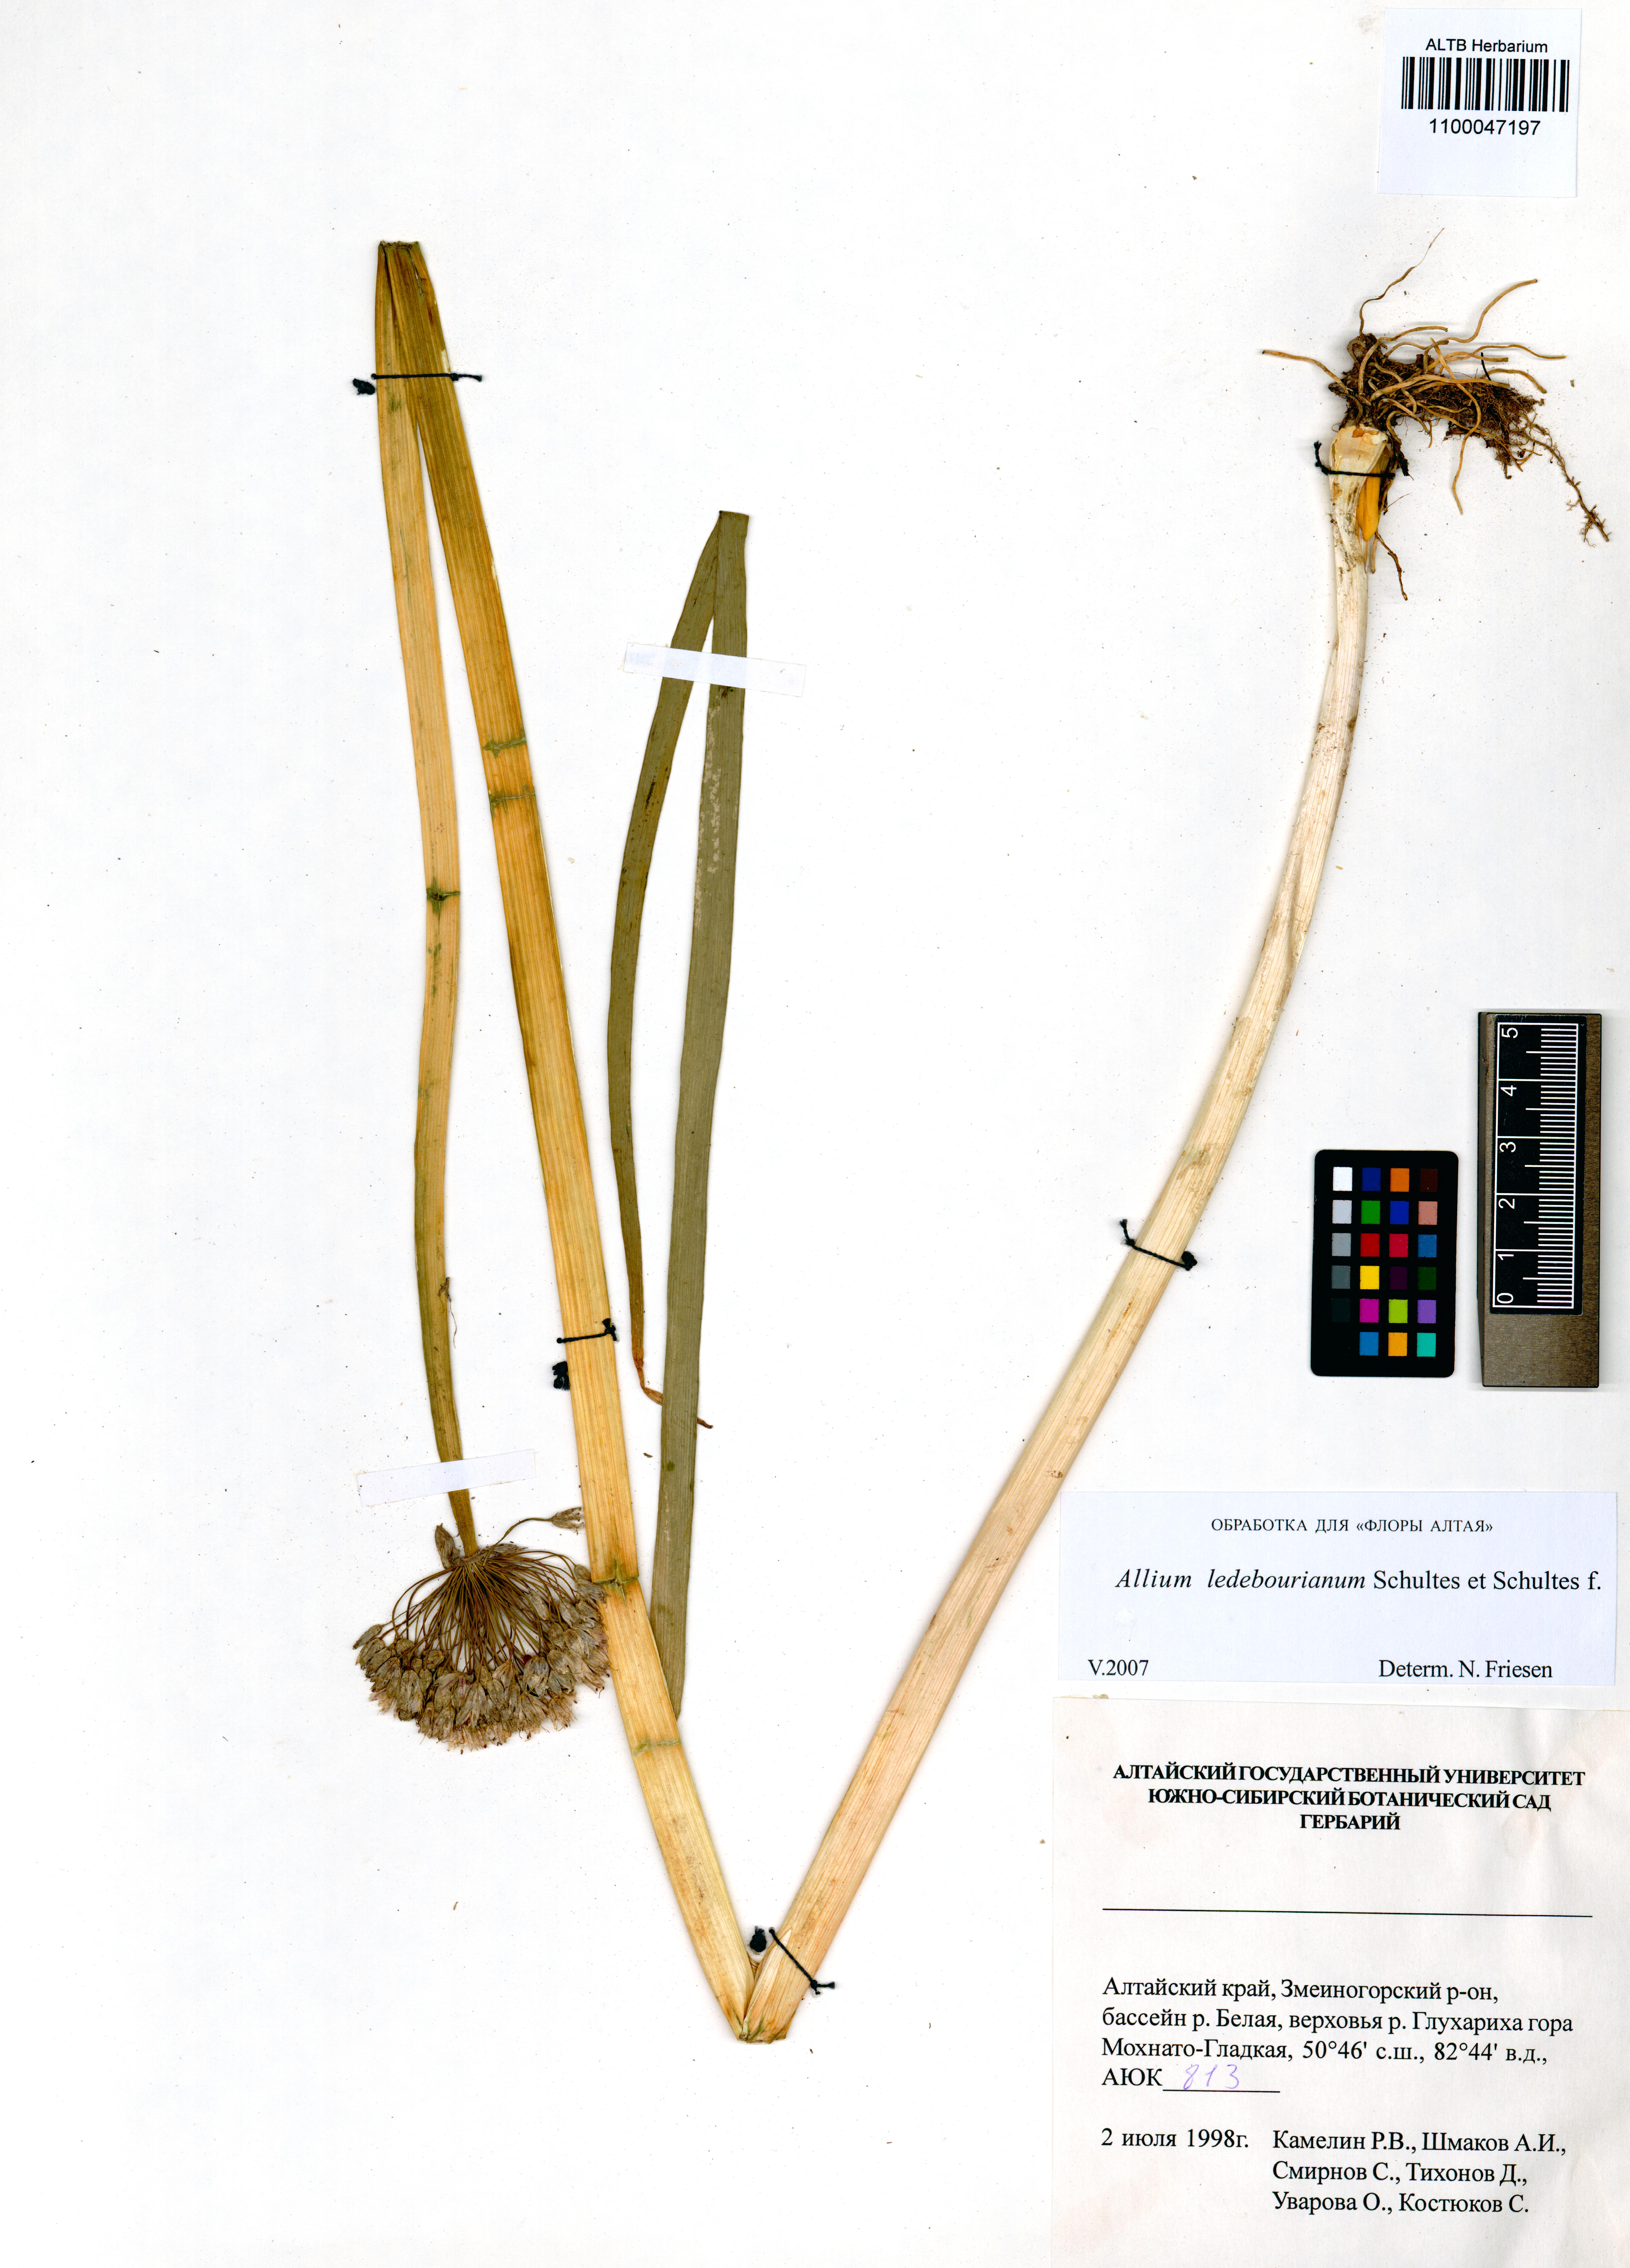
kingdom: Plantae
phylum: Tracheophyta
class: Liliopsida
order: Asparagales
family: Amaryllidaceae
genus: Allium
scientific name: Allium ledebourianum
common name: Ledebour chive
